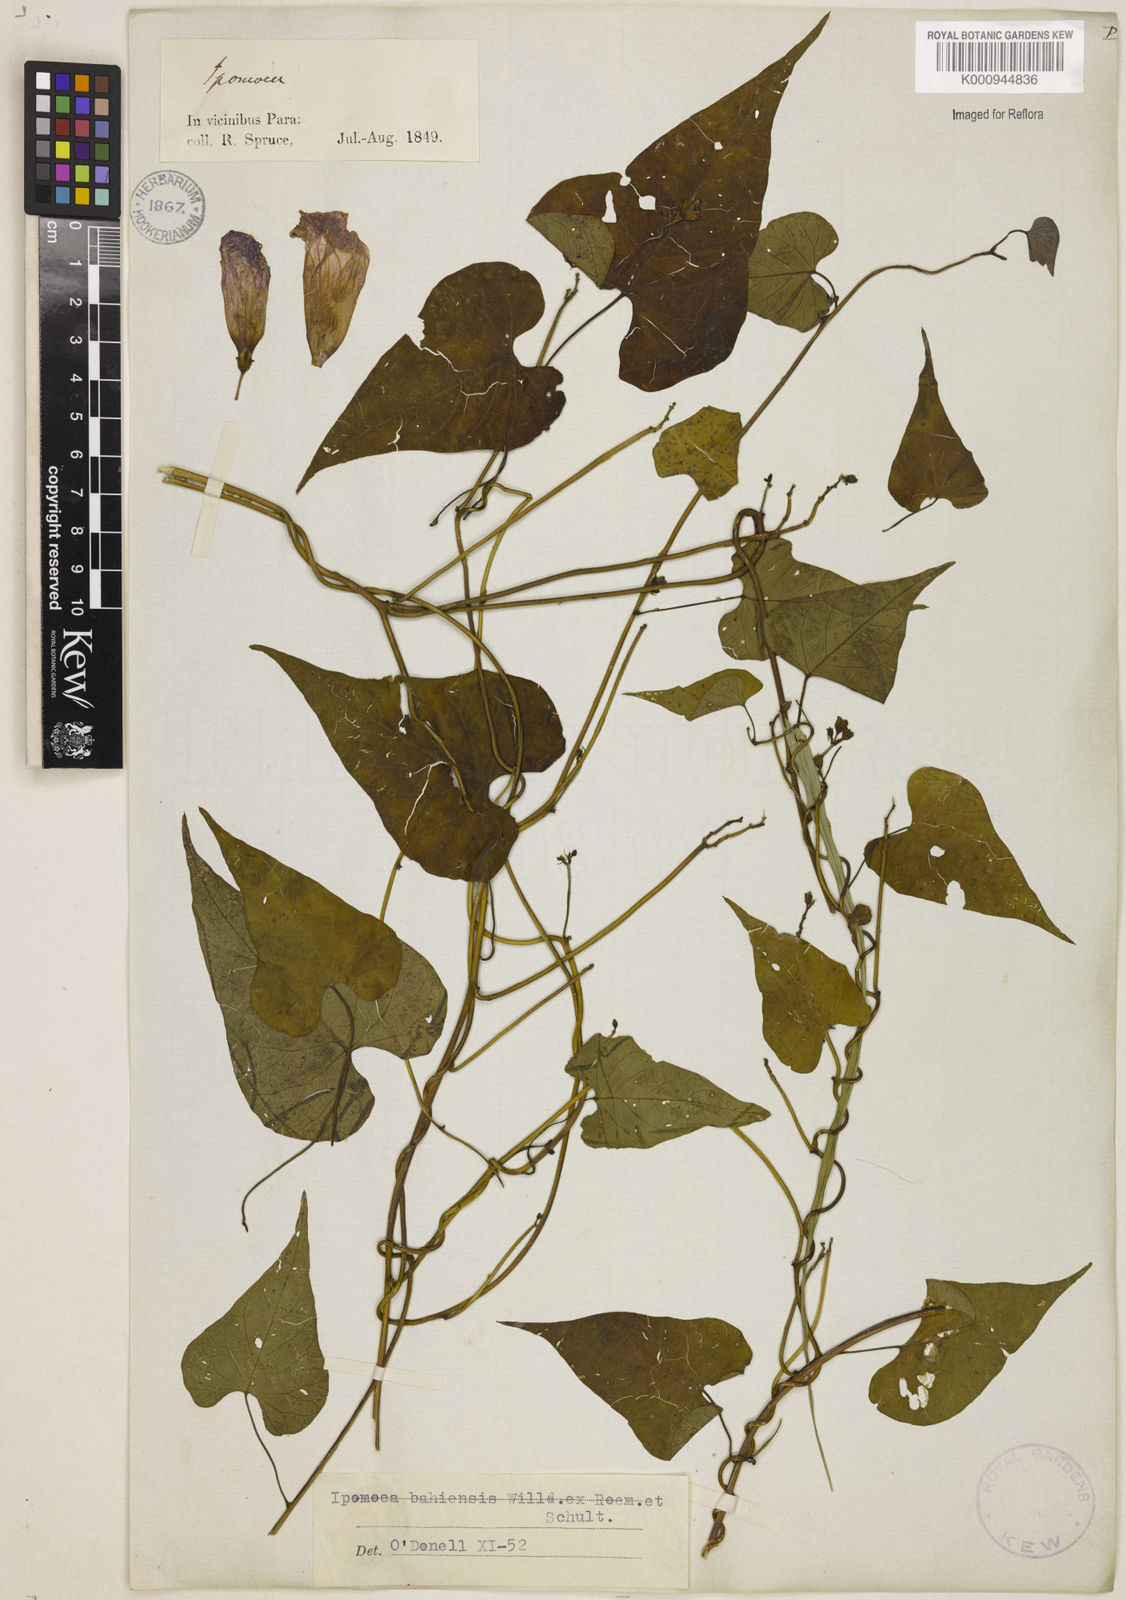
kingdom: Plantae
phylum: Tracheophyta
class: Magnoliopsida
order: Solanales
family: Convolvulaceae
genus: Ipomoea
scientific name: Ipomoea
